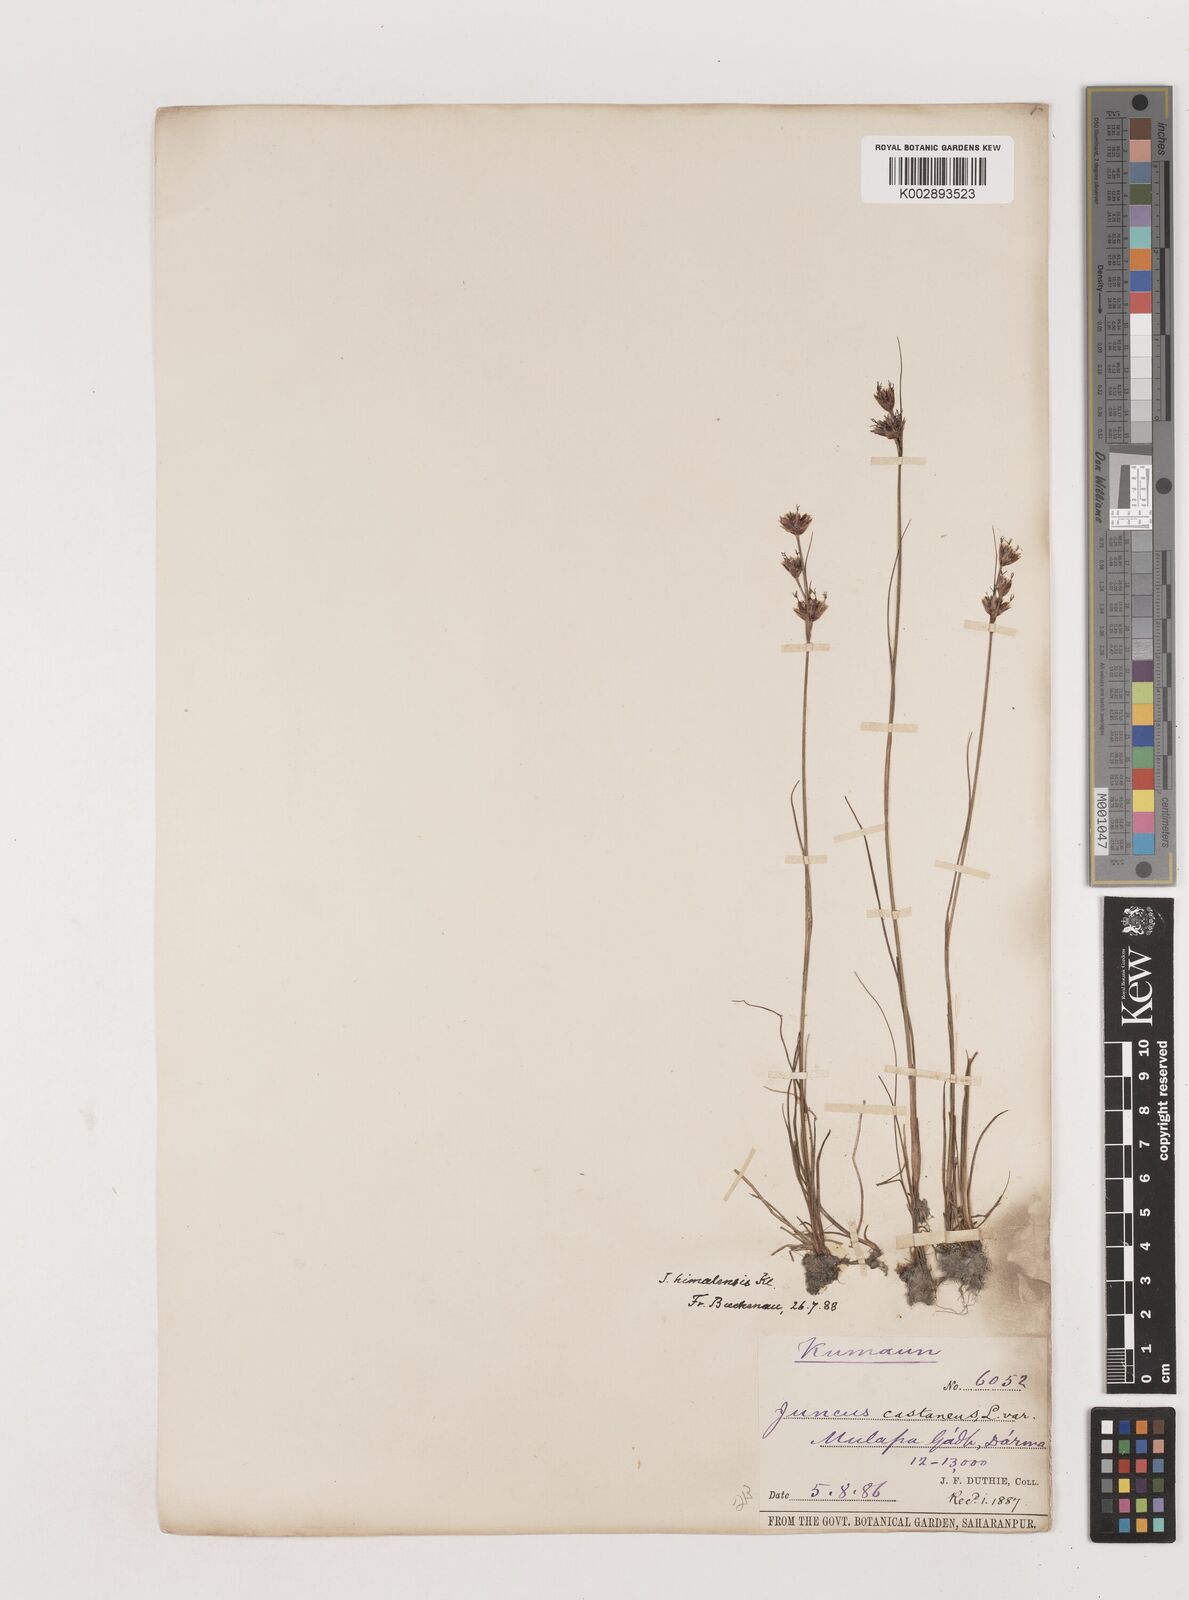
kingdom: Plantae
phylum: Tracheophyta
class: Liliopsida
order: Poales
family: Juncaceae
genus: Juncus
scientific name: Juncus himalensis
